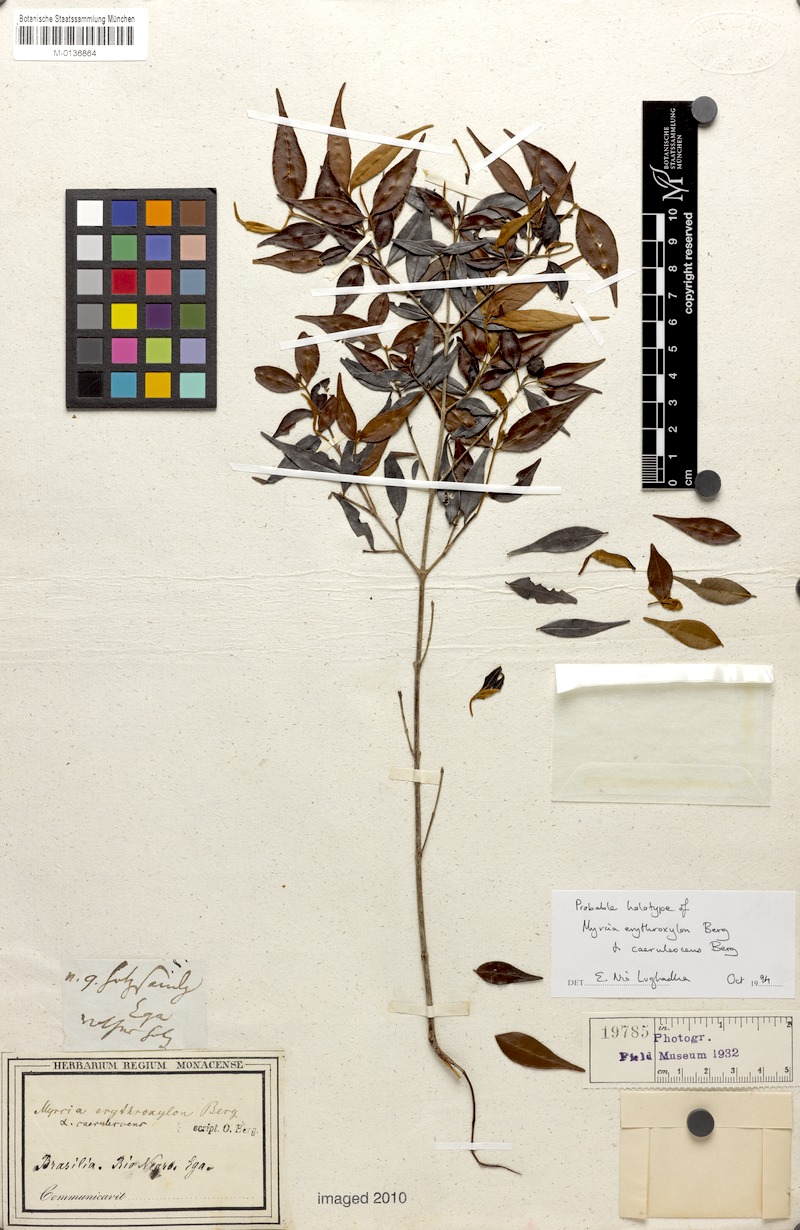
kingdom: Plantae
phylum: Tracheophyta
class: Magnoliopsida
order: Myrtales
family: Myrtaceae
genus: Myrcia
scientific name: Myrcia splendens
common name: Surinam cherry
